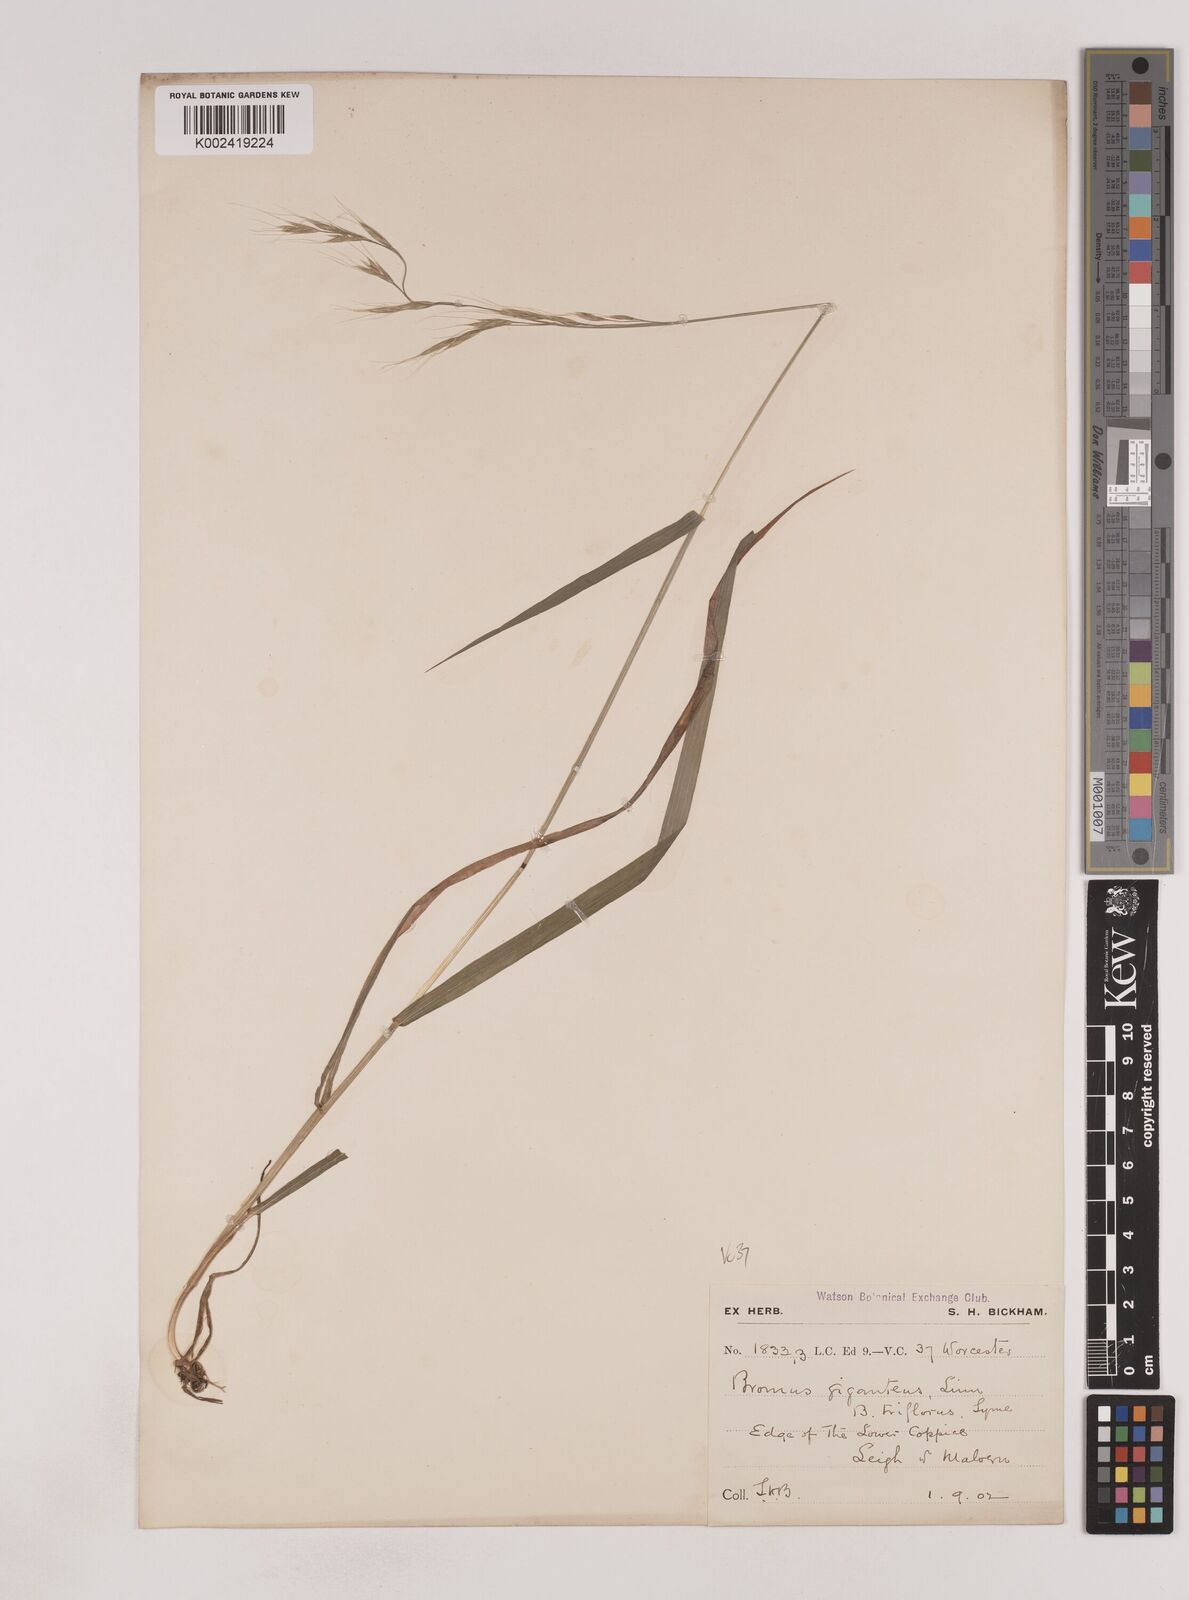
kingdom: Plantae
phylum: Tracheophyta
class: Liliopsida
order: Poales
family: Poaceae
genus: Lolium
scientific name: Lolium giganteum
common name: Giant fescue
